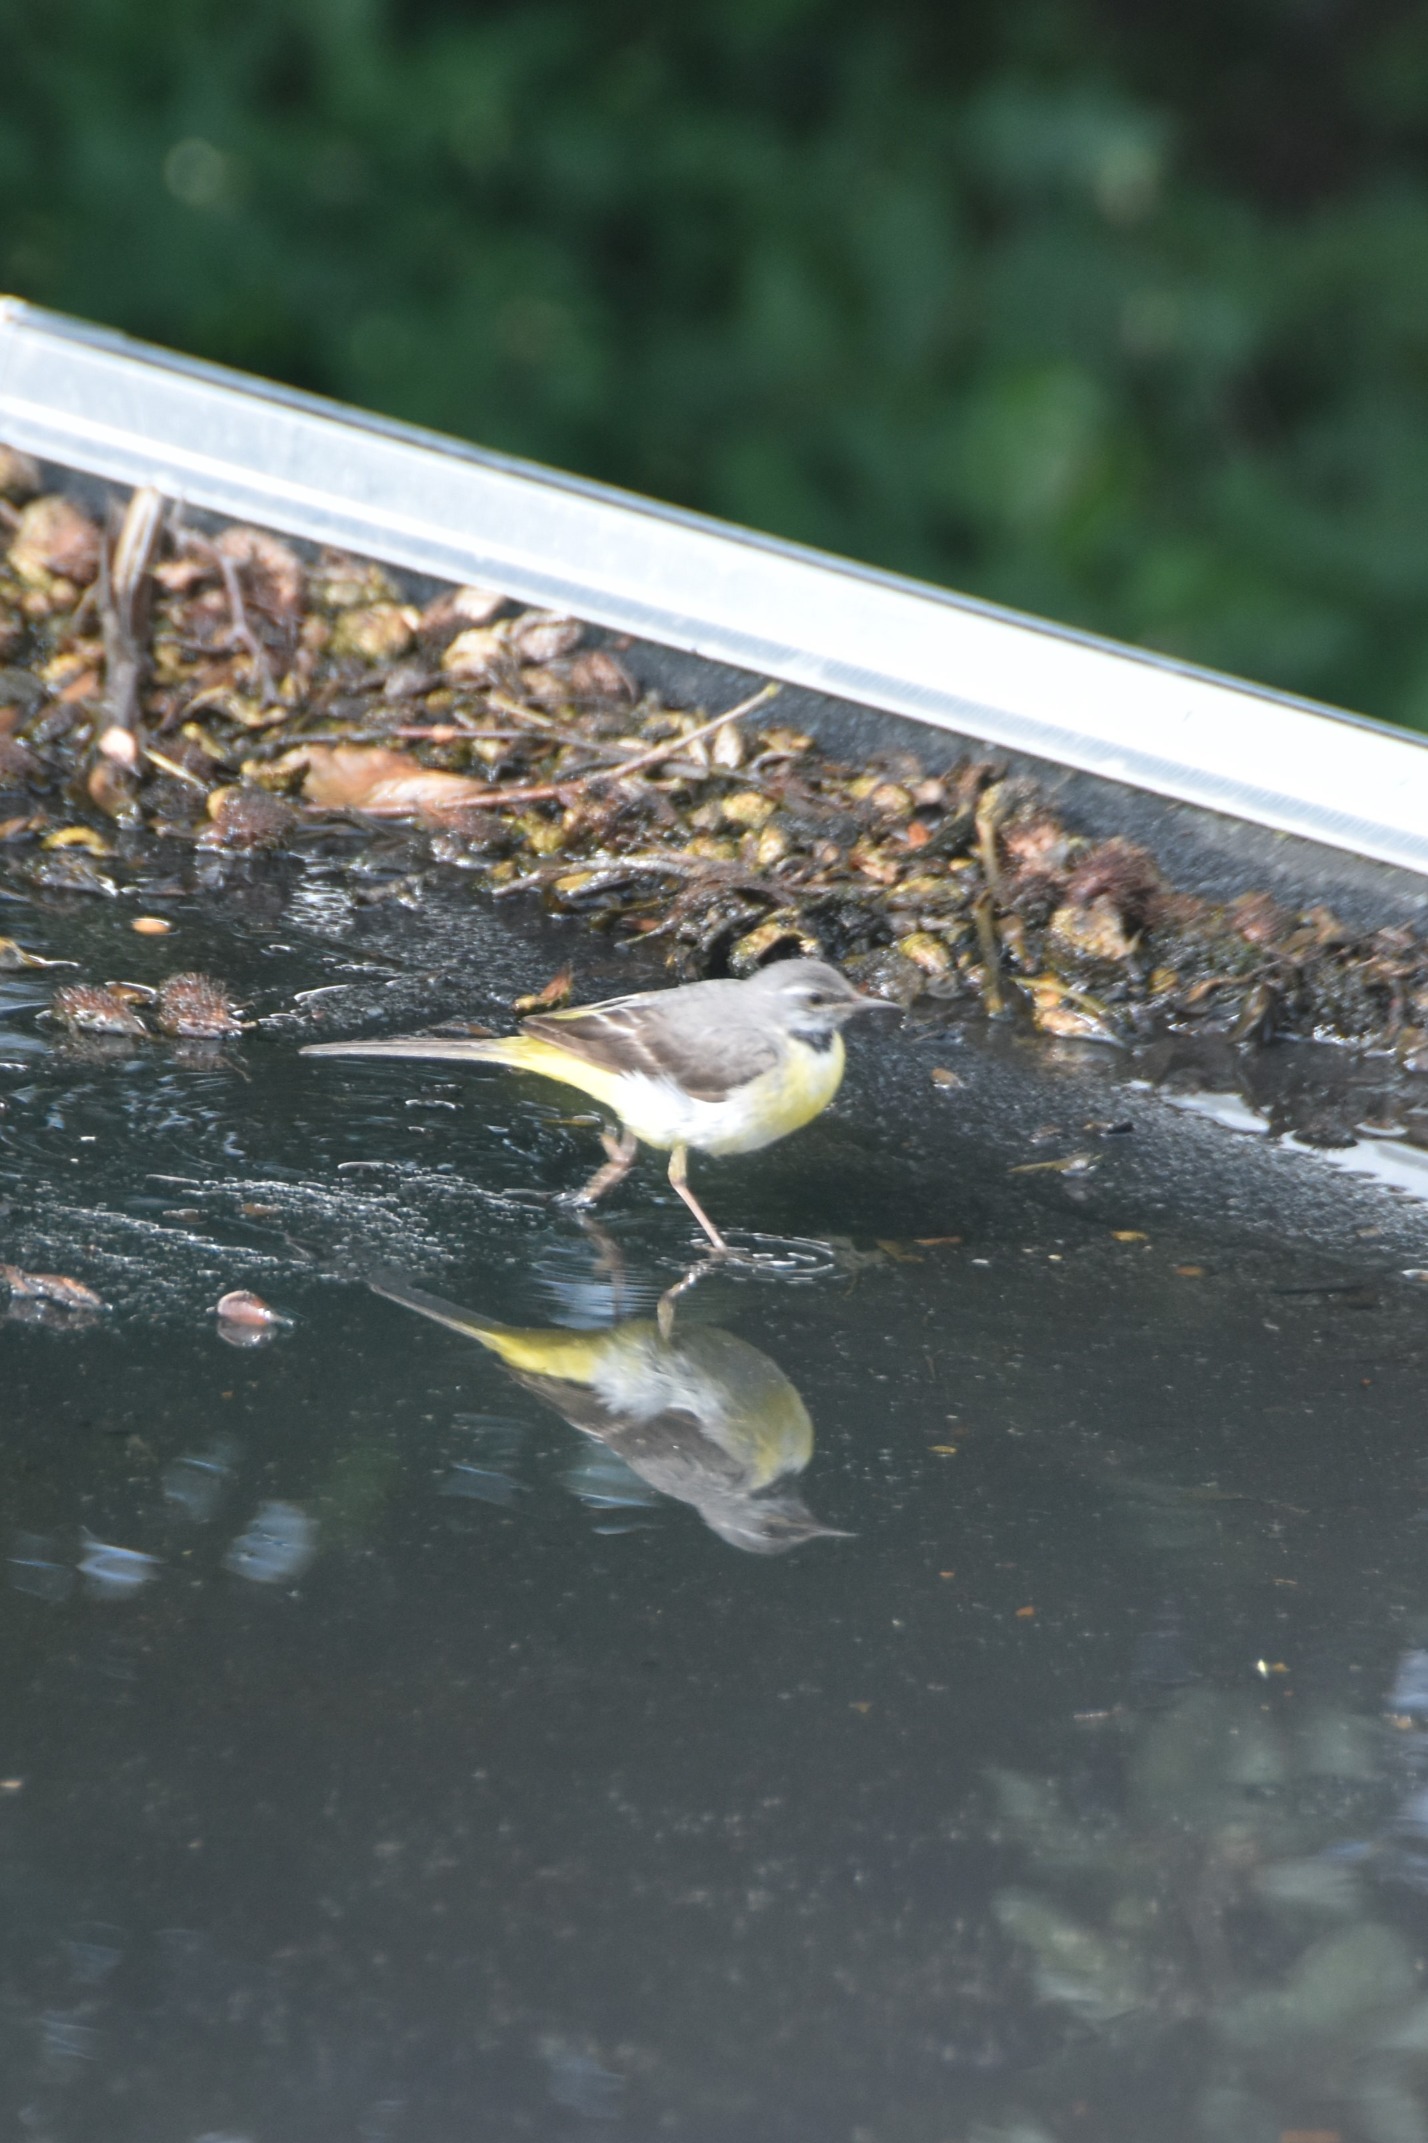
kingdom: Animalia
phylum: Chordata
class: Aves
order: Passeriformes
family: Motacillidae
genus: Motacilla
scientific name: Motacilla cinerea
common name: Bjergvipstjert
